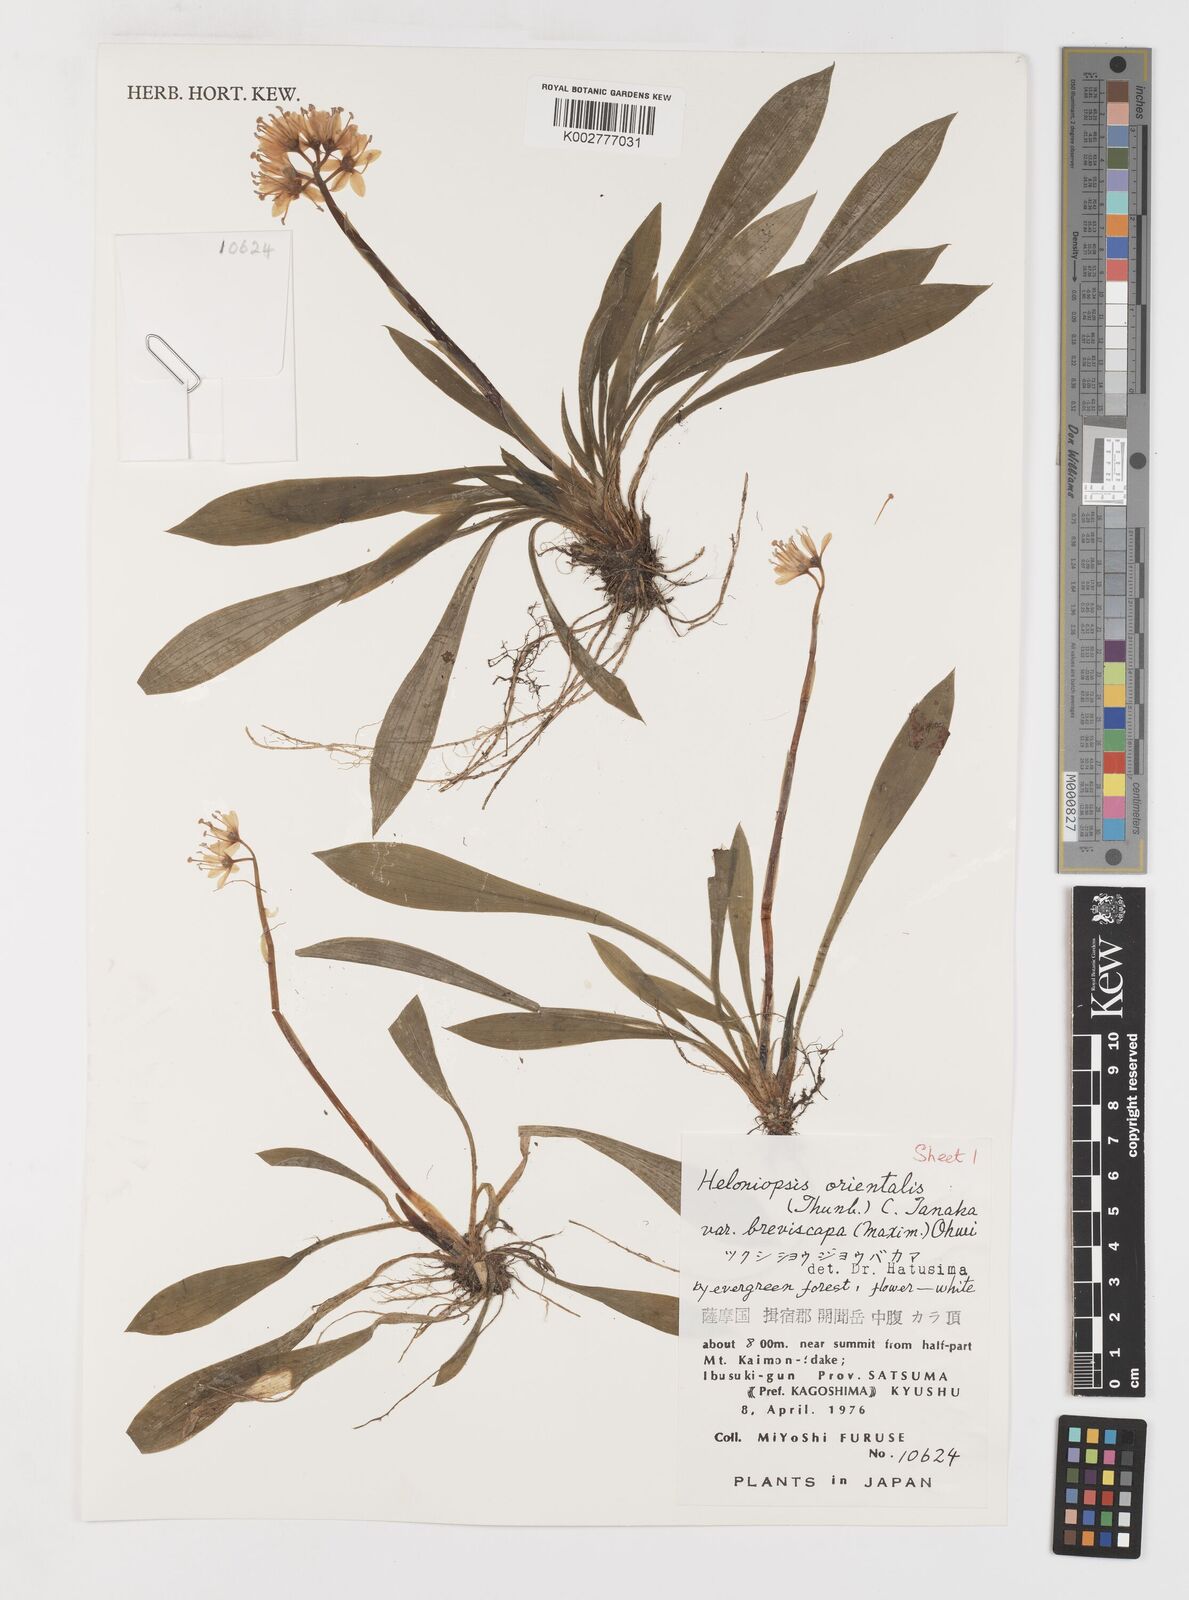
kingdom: Plantae
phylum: Tracheophyta
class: Liliopsida
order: Liliales
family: Melanthiaceae
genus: Helonias
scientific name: Helonias orientalis
